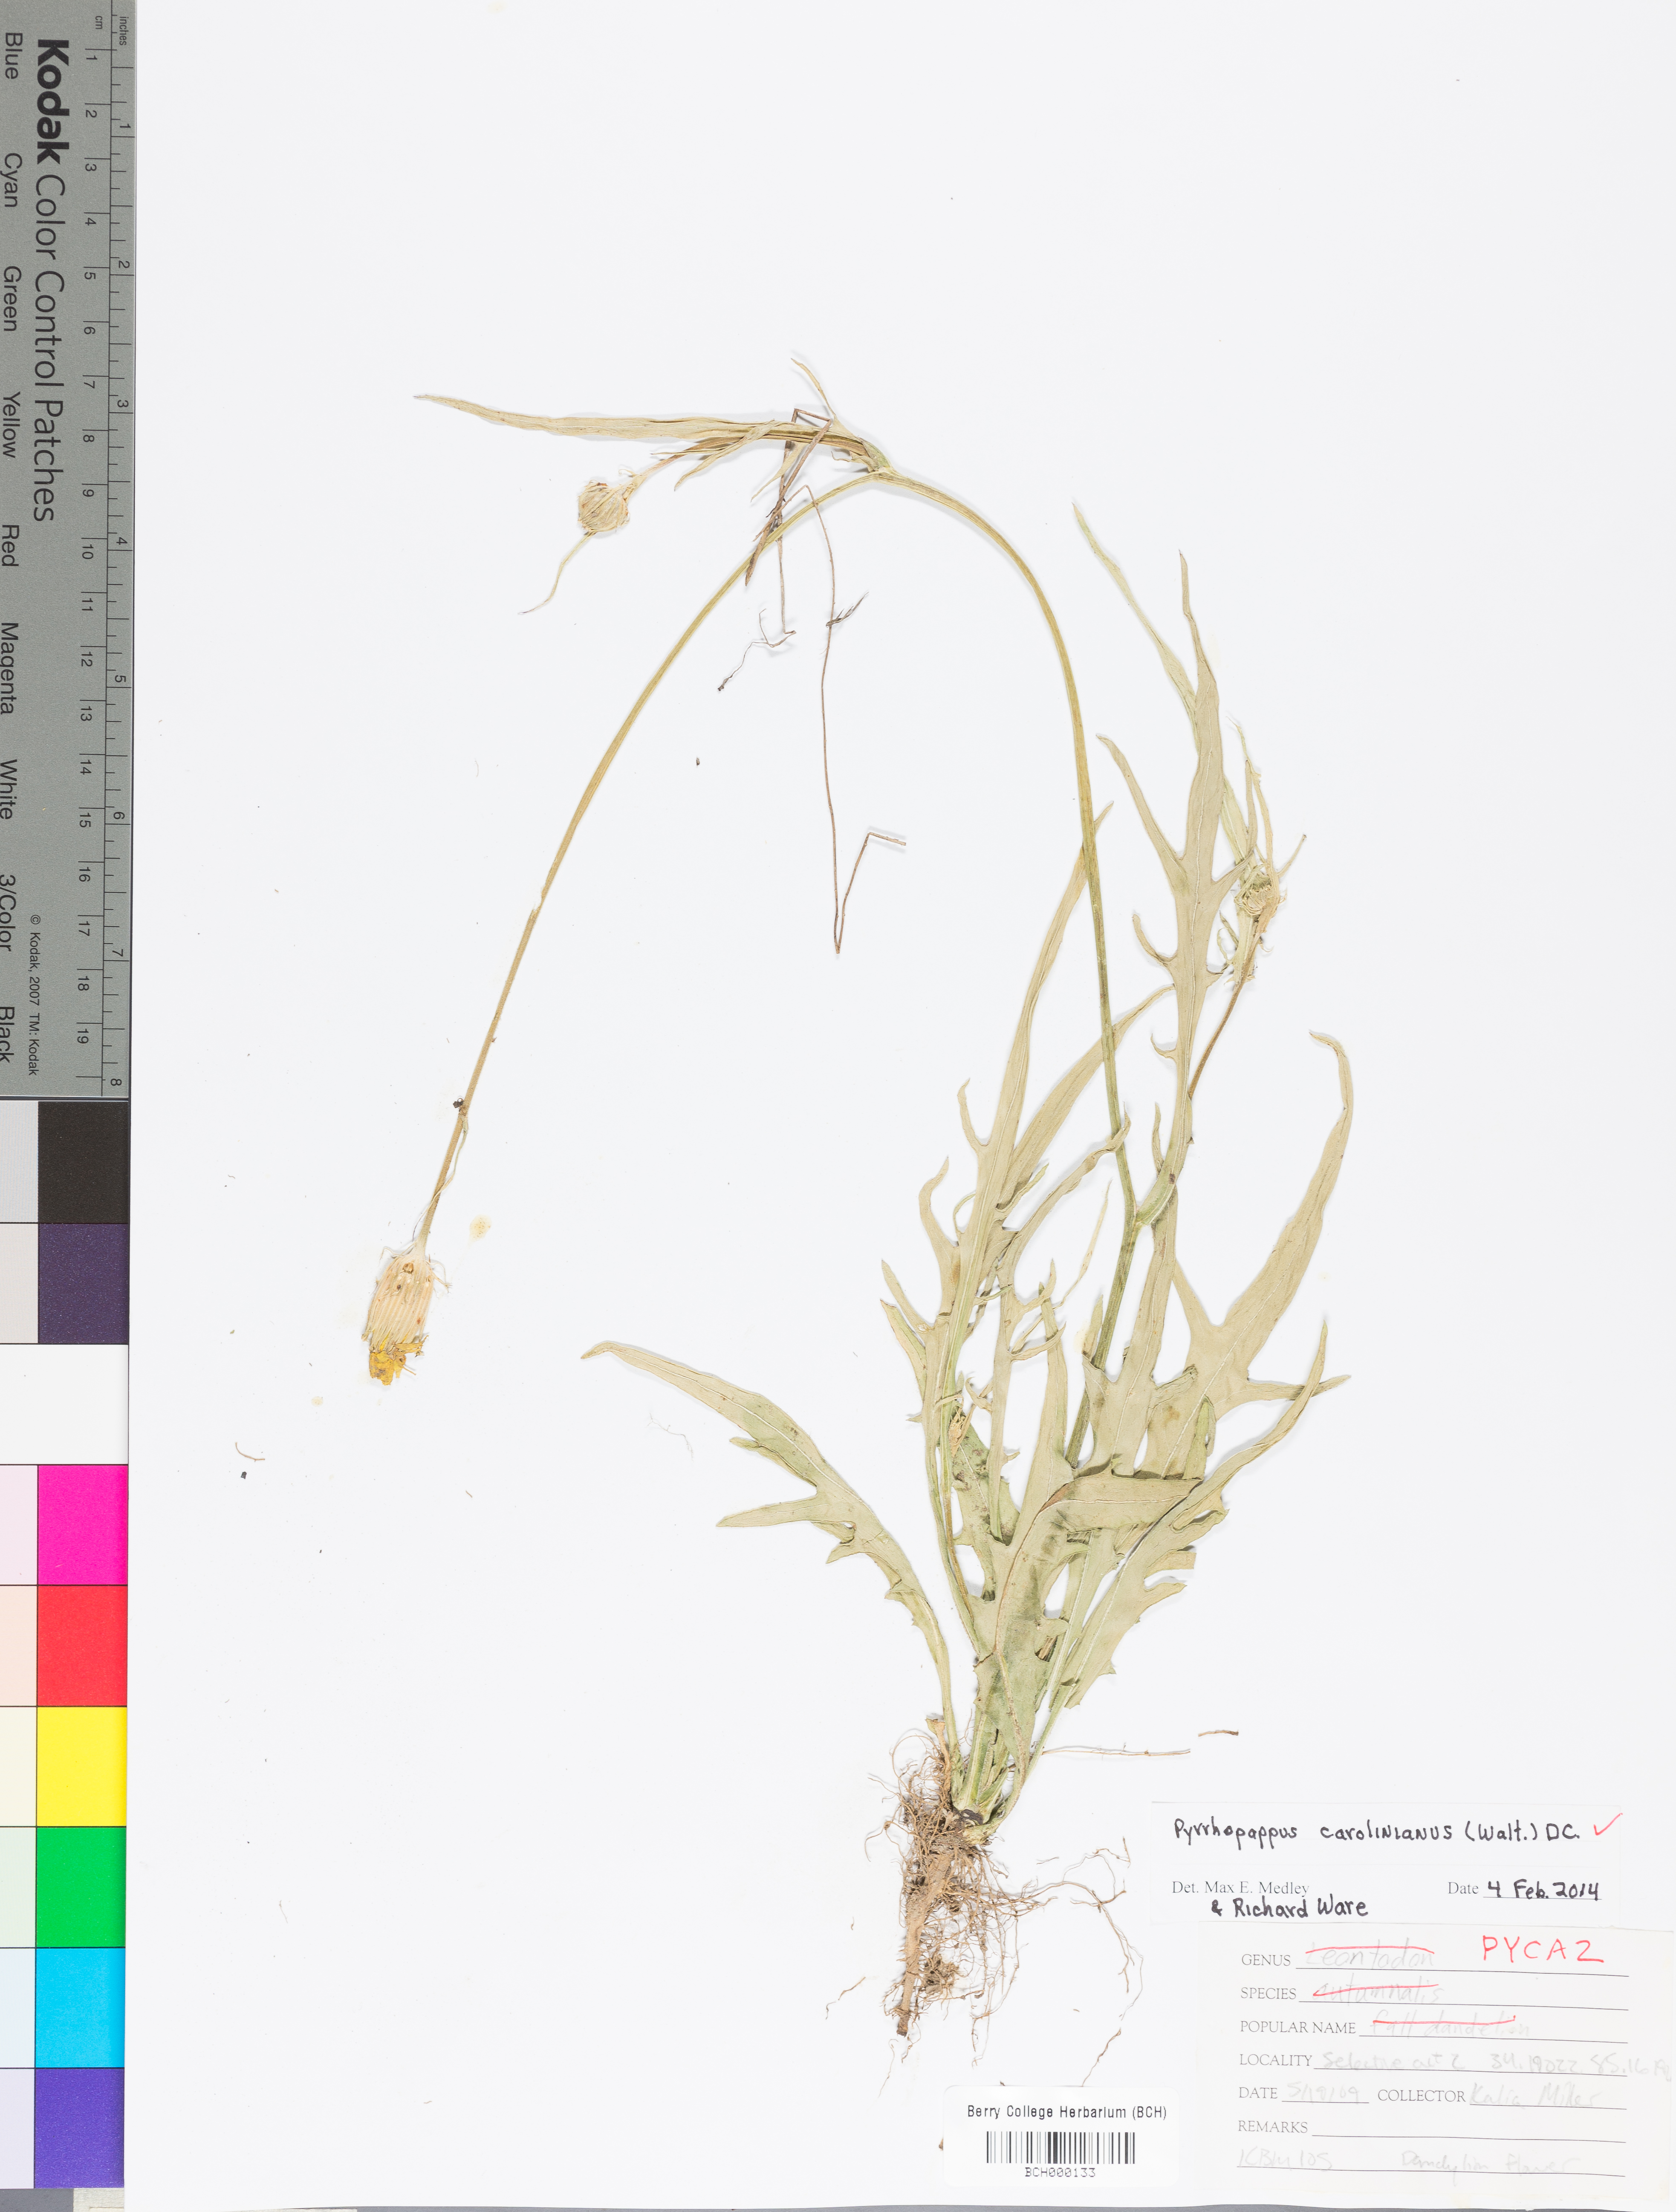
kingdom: Plantae
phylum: Tracheophyta
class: Magnoliopsida
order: Asterales
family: Asteraceae
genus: Pyrrhopappus
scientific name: Pyrrhopappus carolinianus
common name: Carolina desert-chicory
